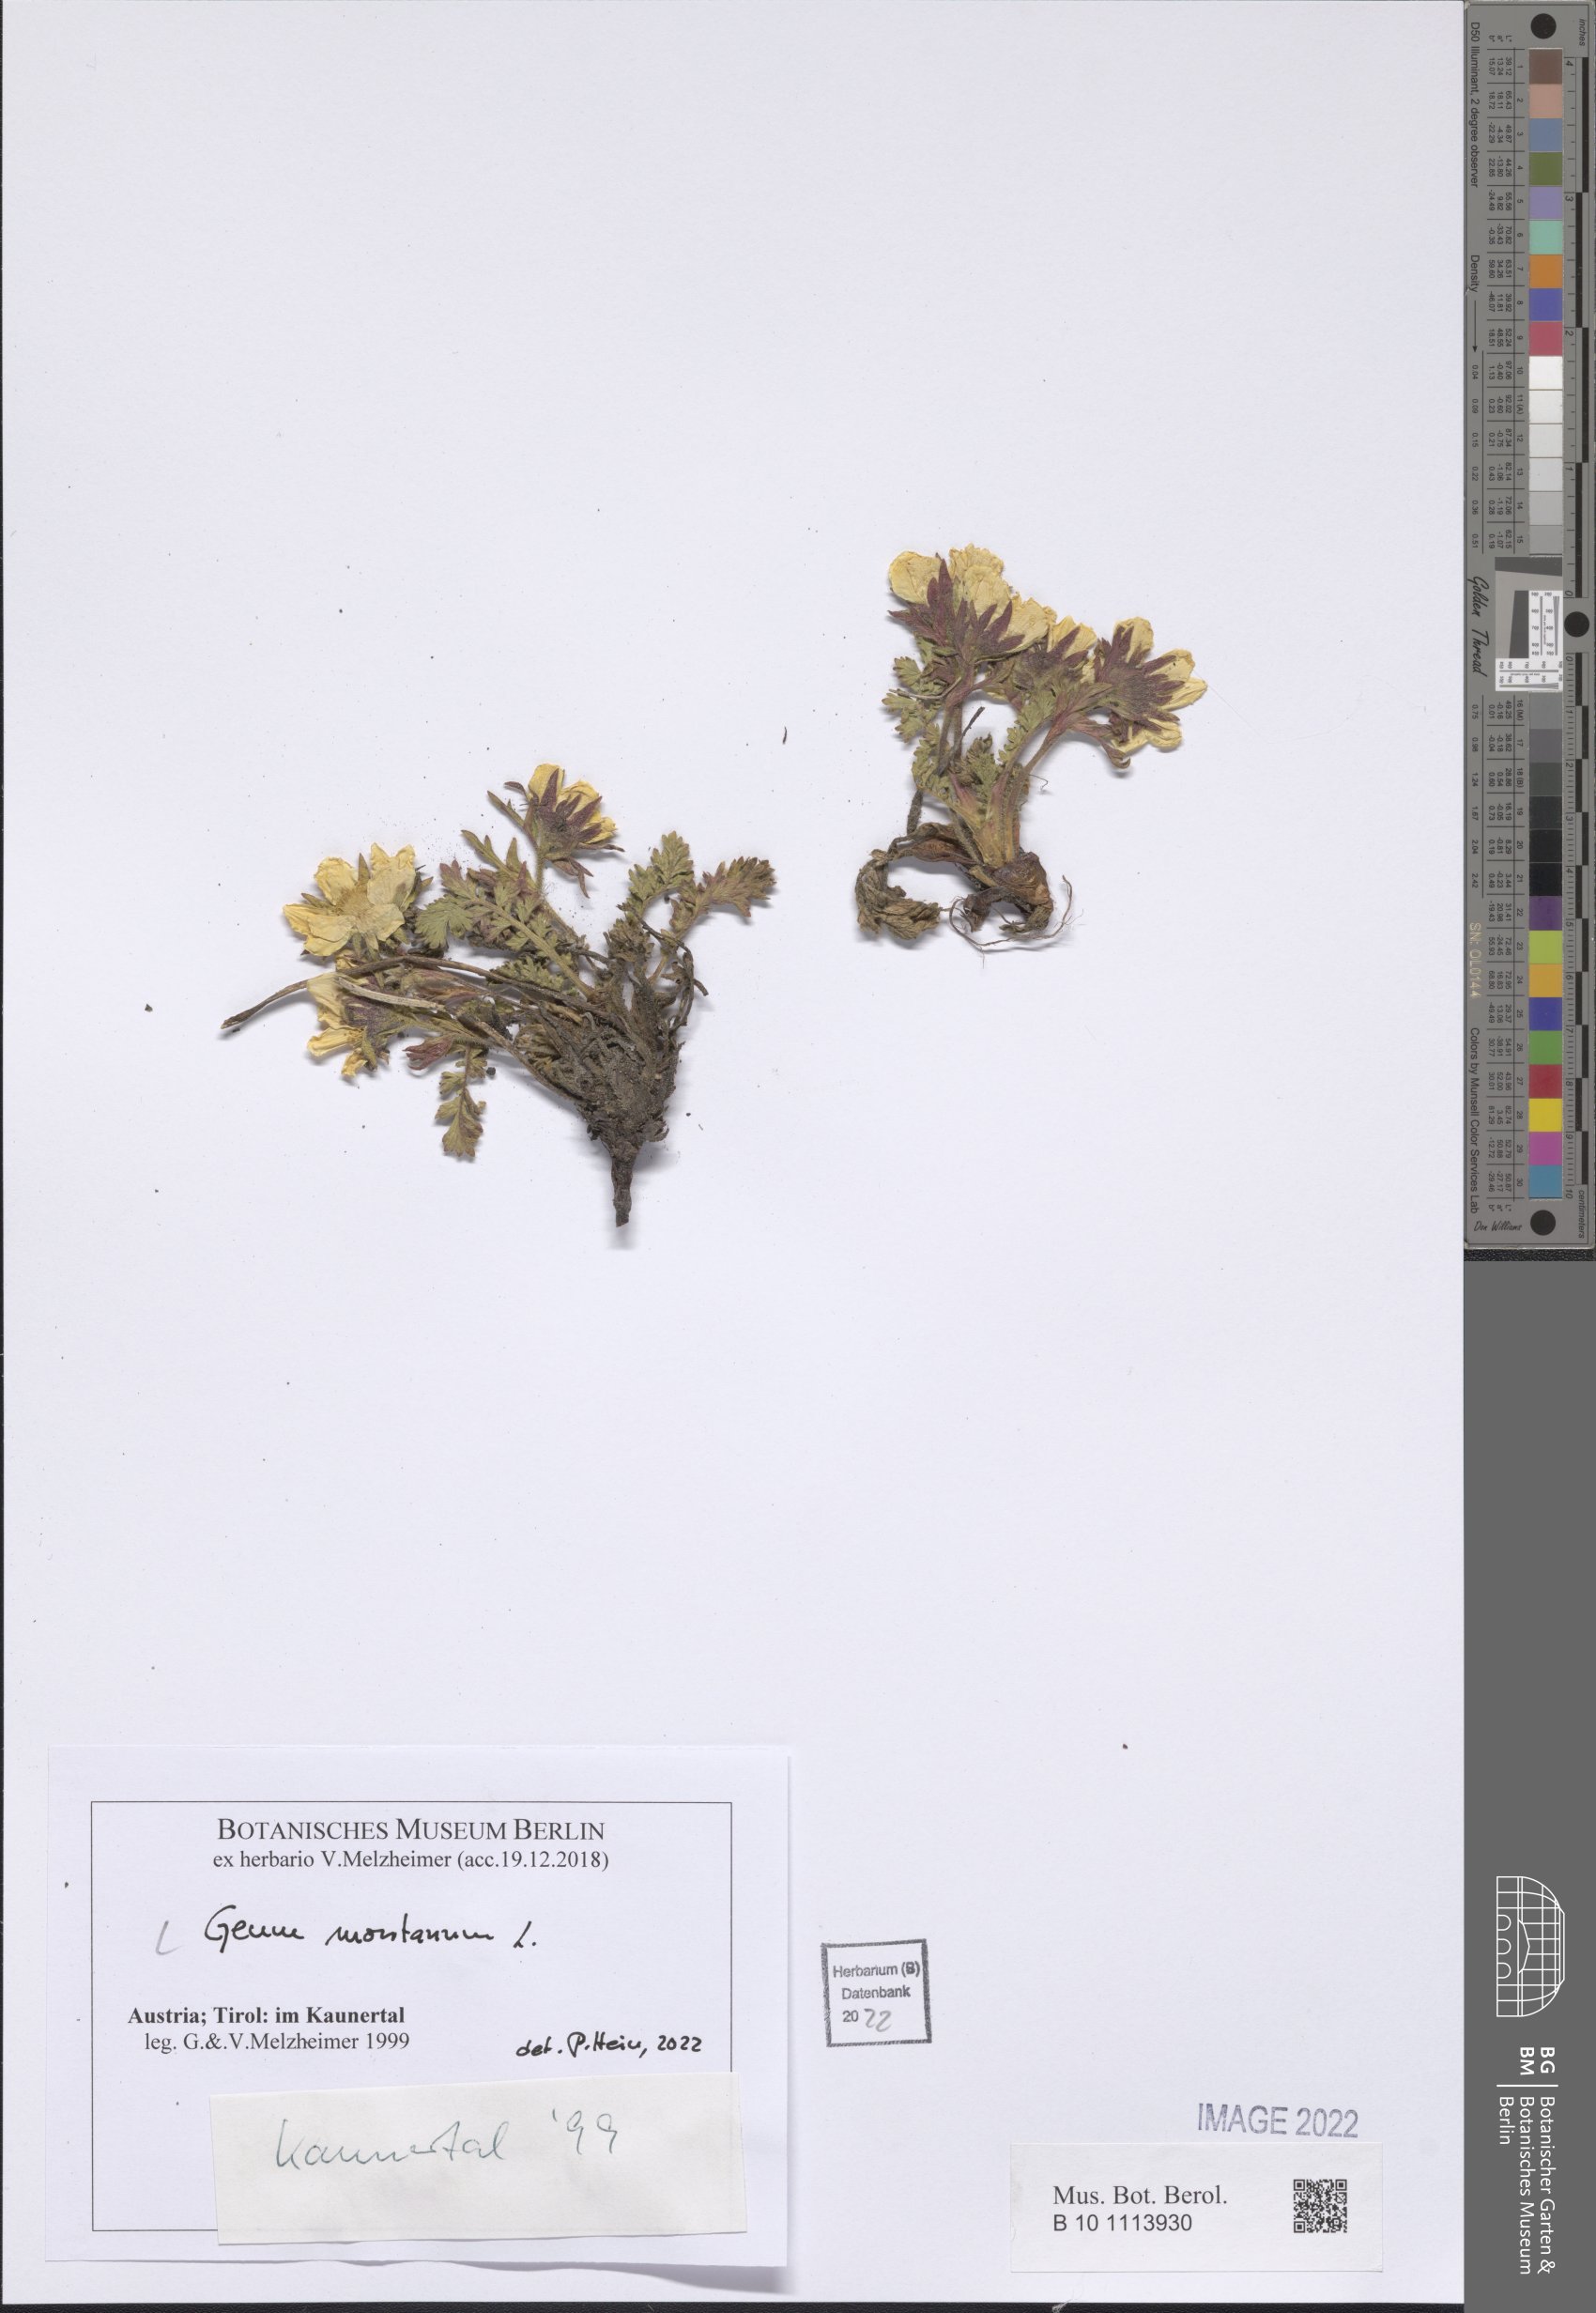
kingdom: Plantae
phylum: Tracheophyta
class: Magnoliopsida
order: Rosales
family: Rosaceae
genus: Geum
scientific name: Geum montanum
